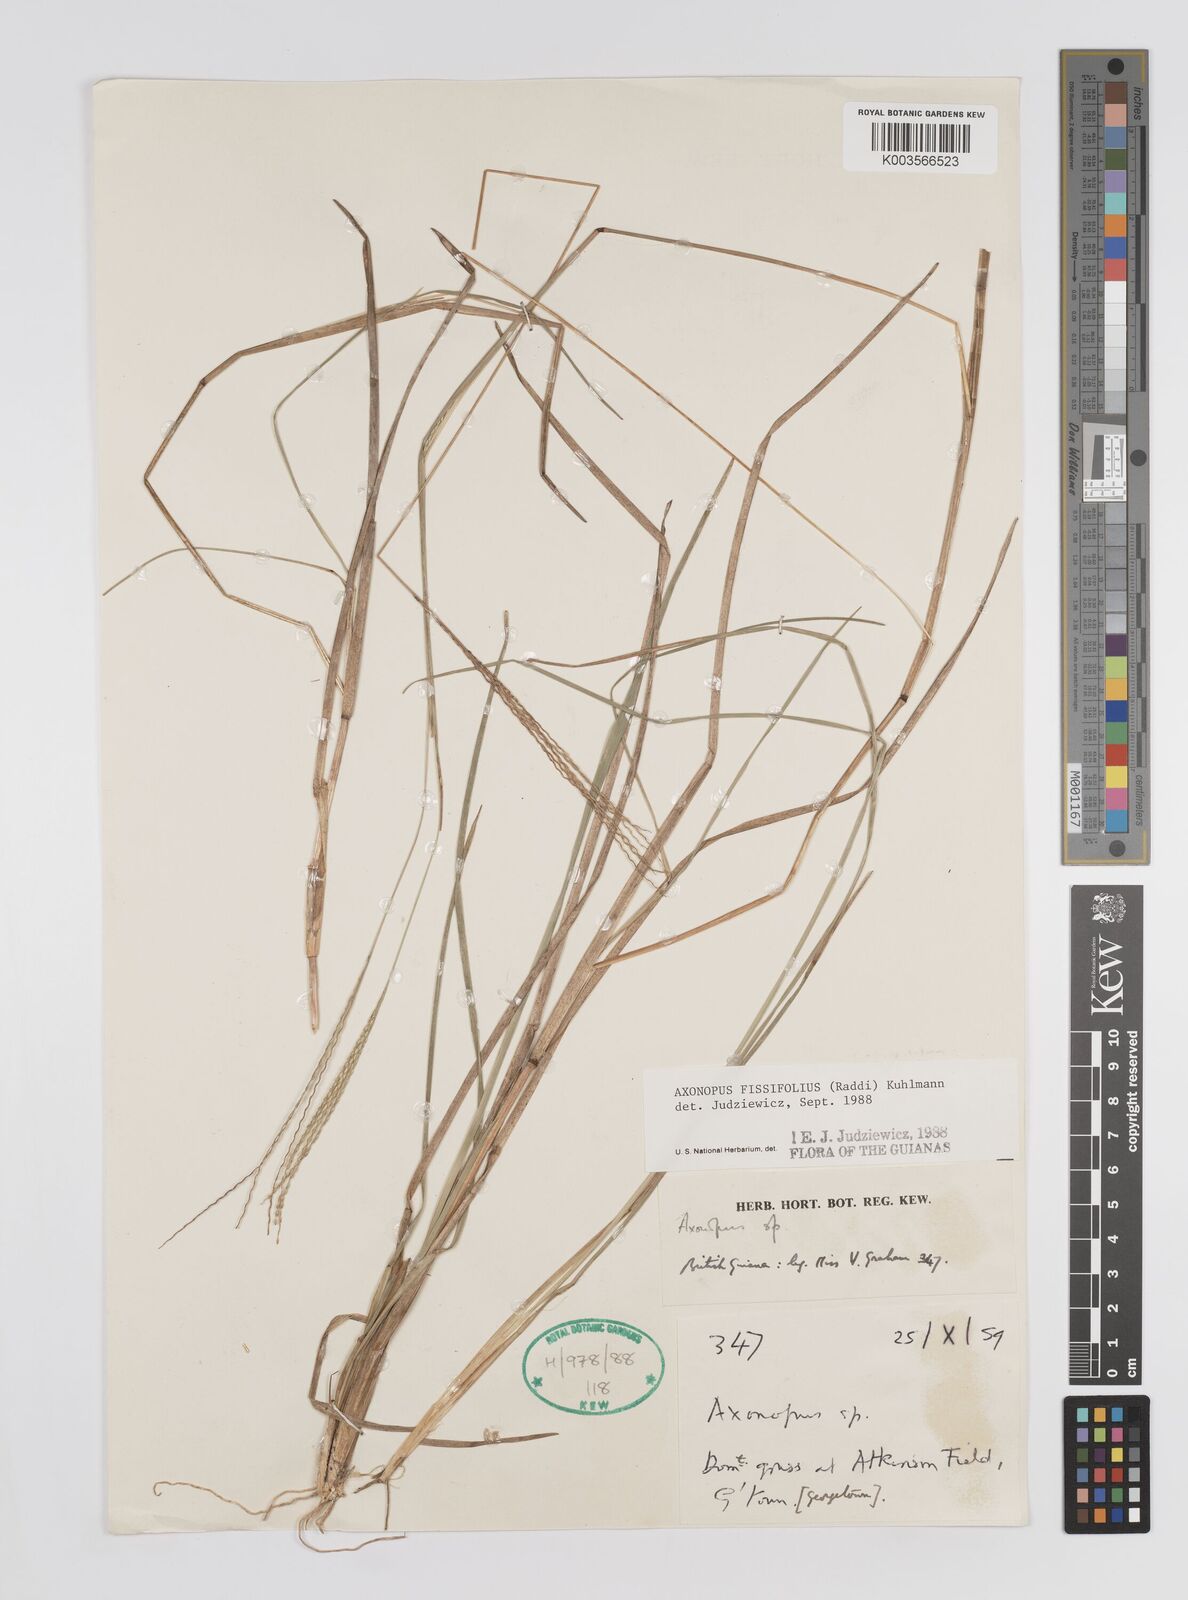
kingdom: Plantae
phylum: Tracheophyta
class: Liliopsida
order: Poales
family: Poaceae
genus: Axonopus
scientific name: Axonopus fissifolius
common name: Common carpetgrass
